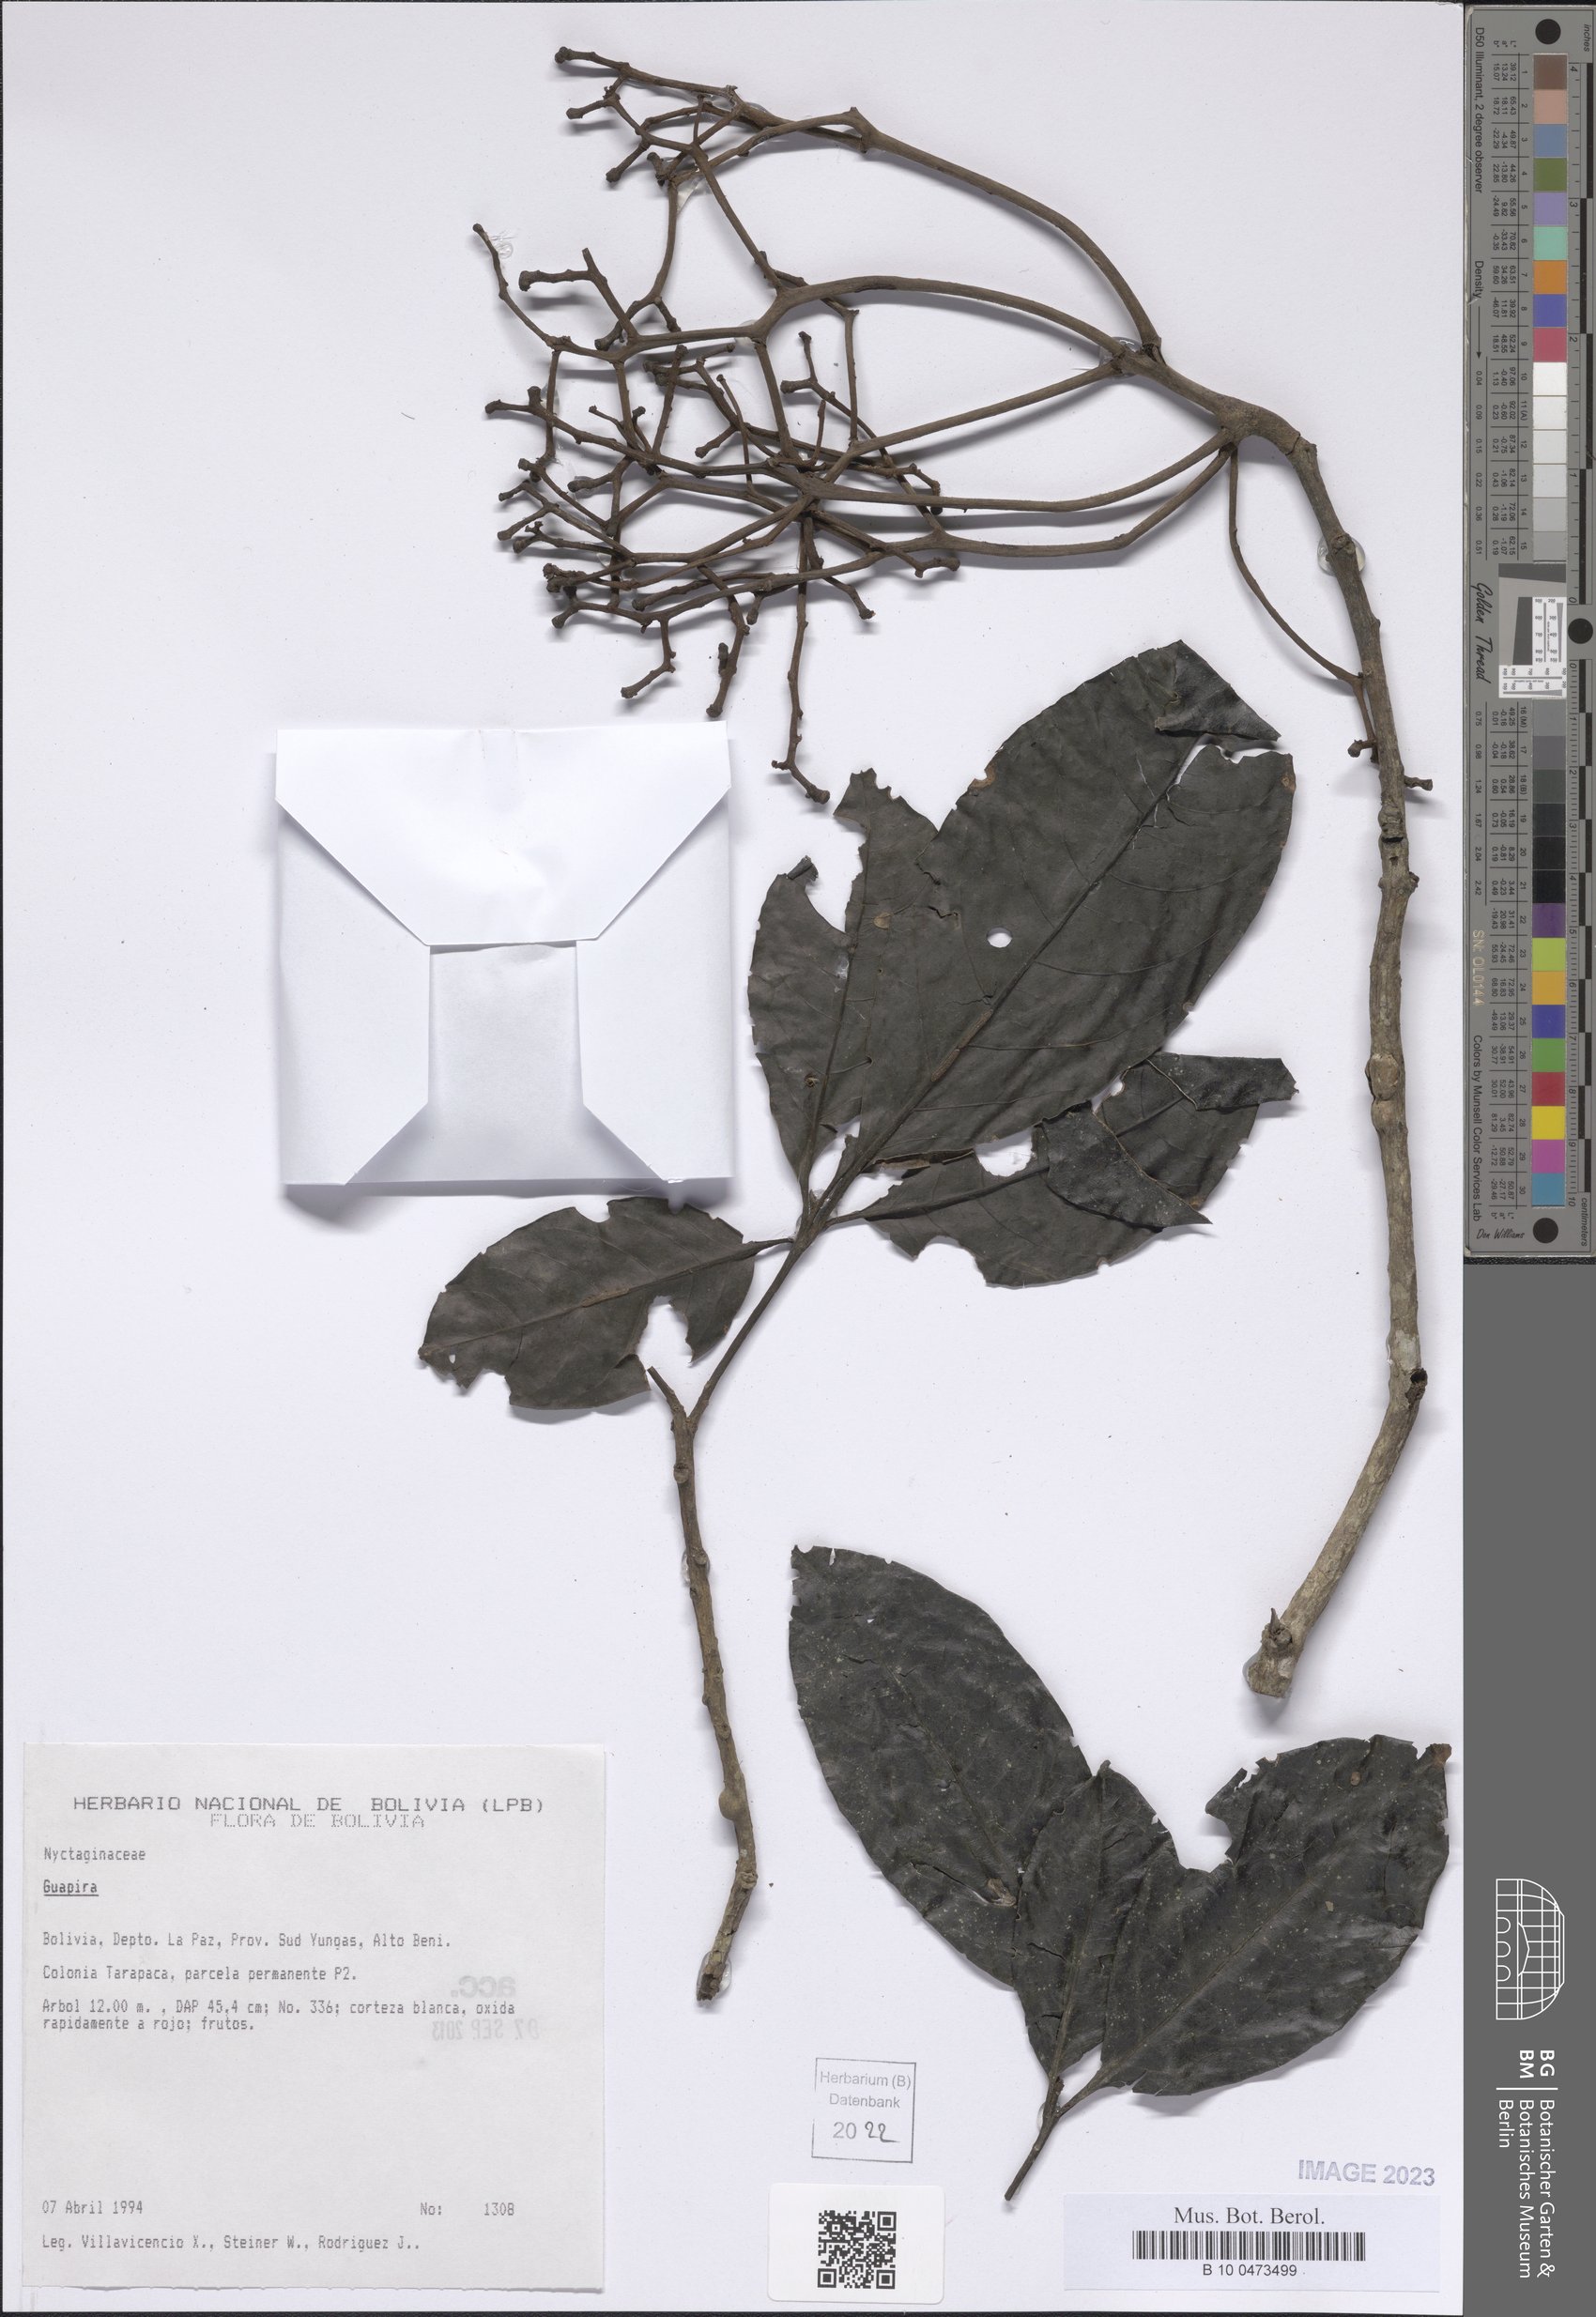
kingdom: Plantae
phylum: Tracheophyta
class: Magnoliopsida
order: Caryophyllales
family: Nyctaginaceae
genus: Guapira
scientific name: Guapira
